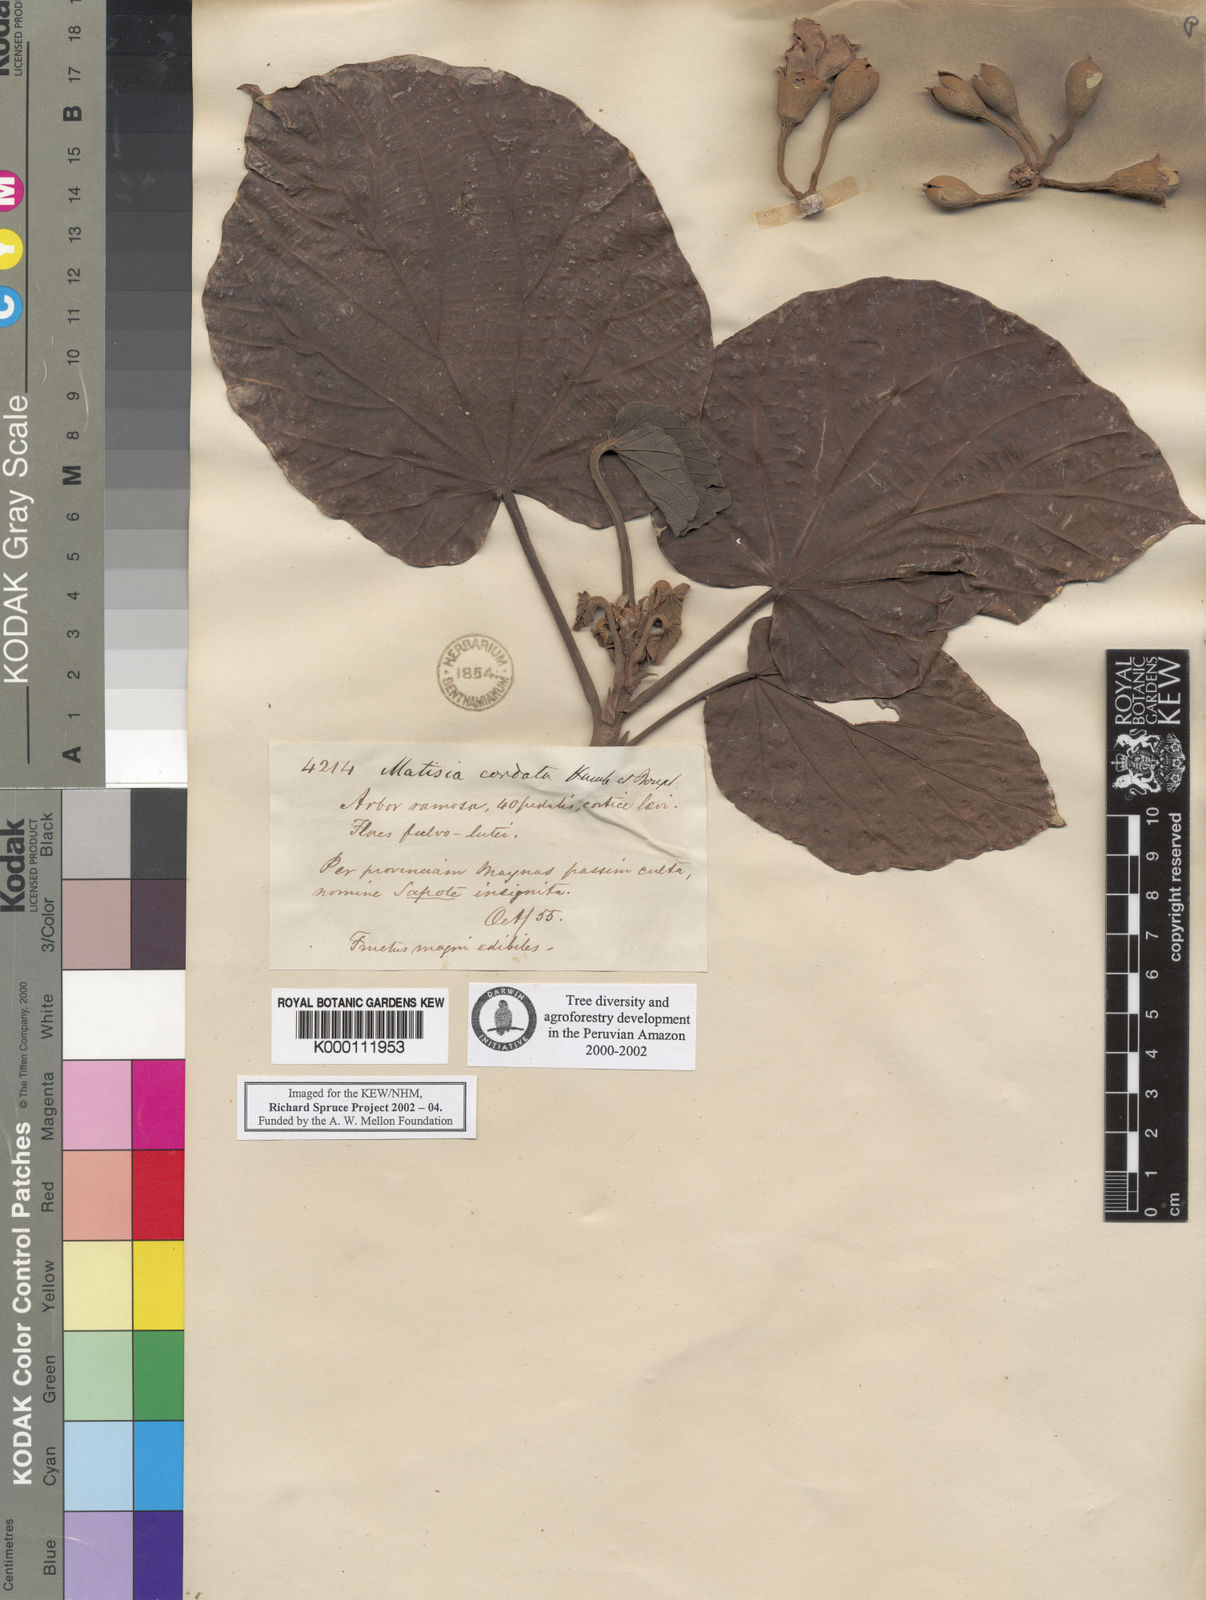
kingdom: Plantae
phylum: Tracheophyta
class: Magnoliopsida
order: Malvales
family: Malvaceae
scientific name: Malvaceae
